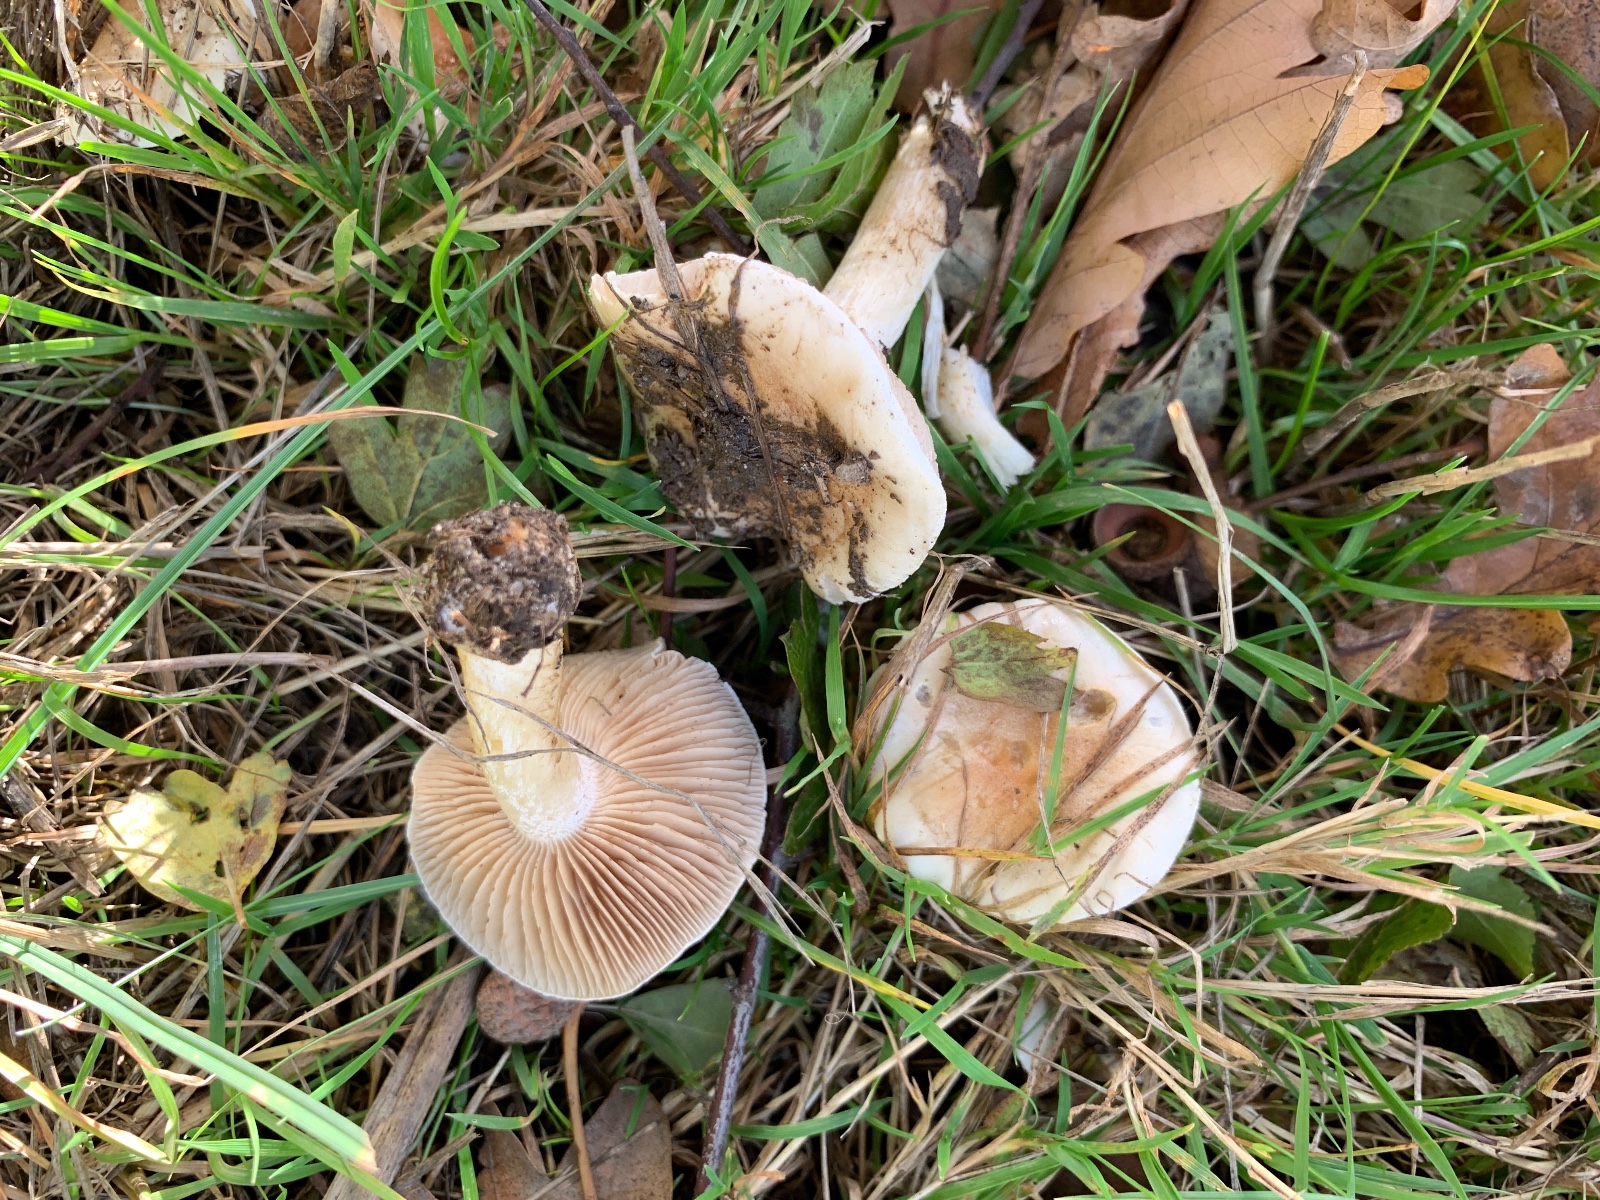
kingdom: Fungi
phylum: Basidiomycota
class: Agaricomycetes
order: Agaricales
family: Hymenogastraceae
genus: Hebeloma
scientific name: Hebeloma
